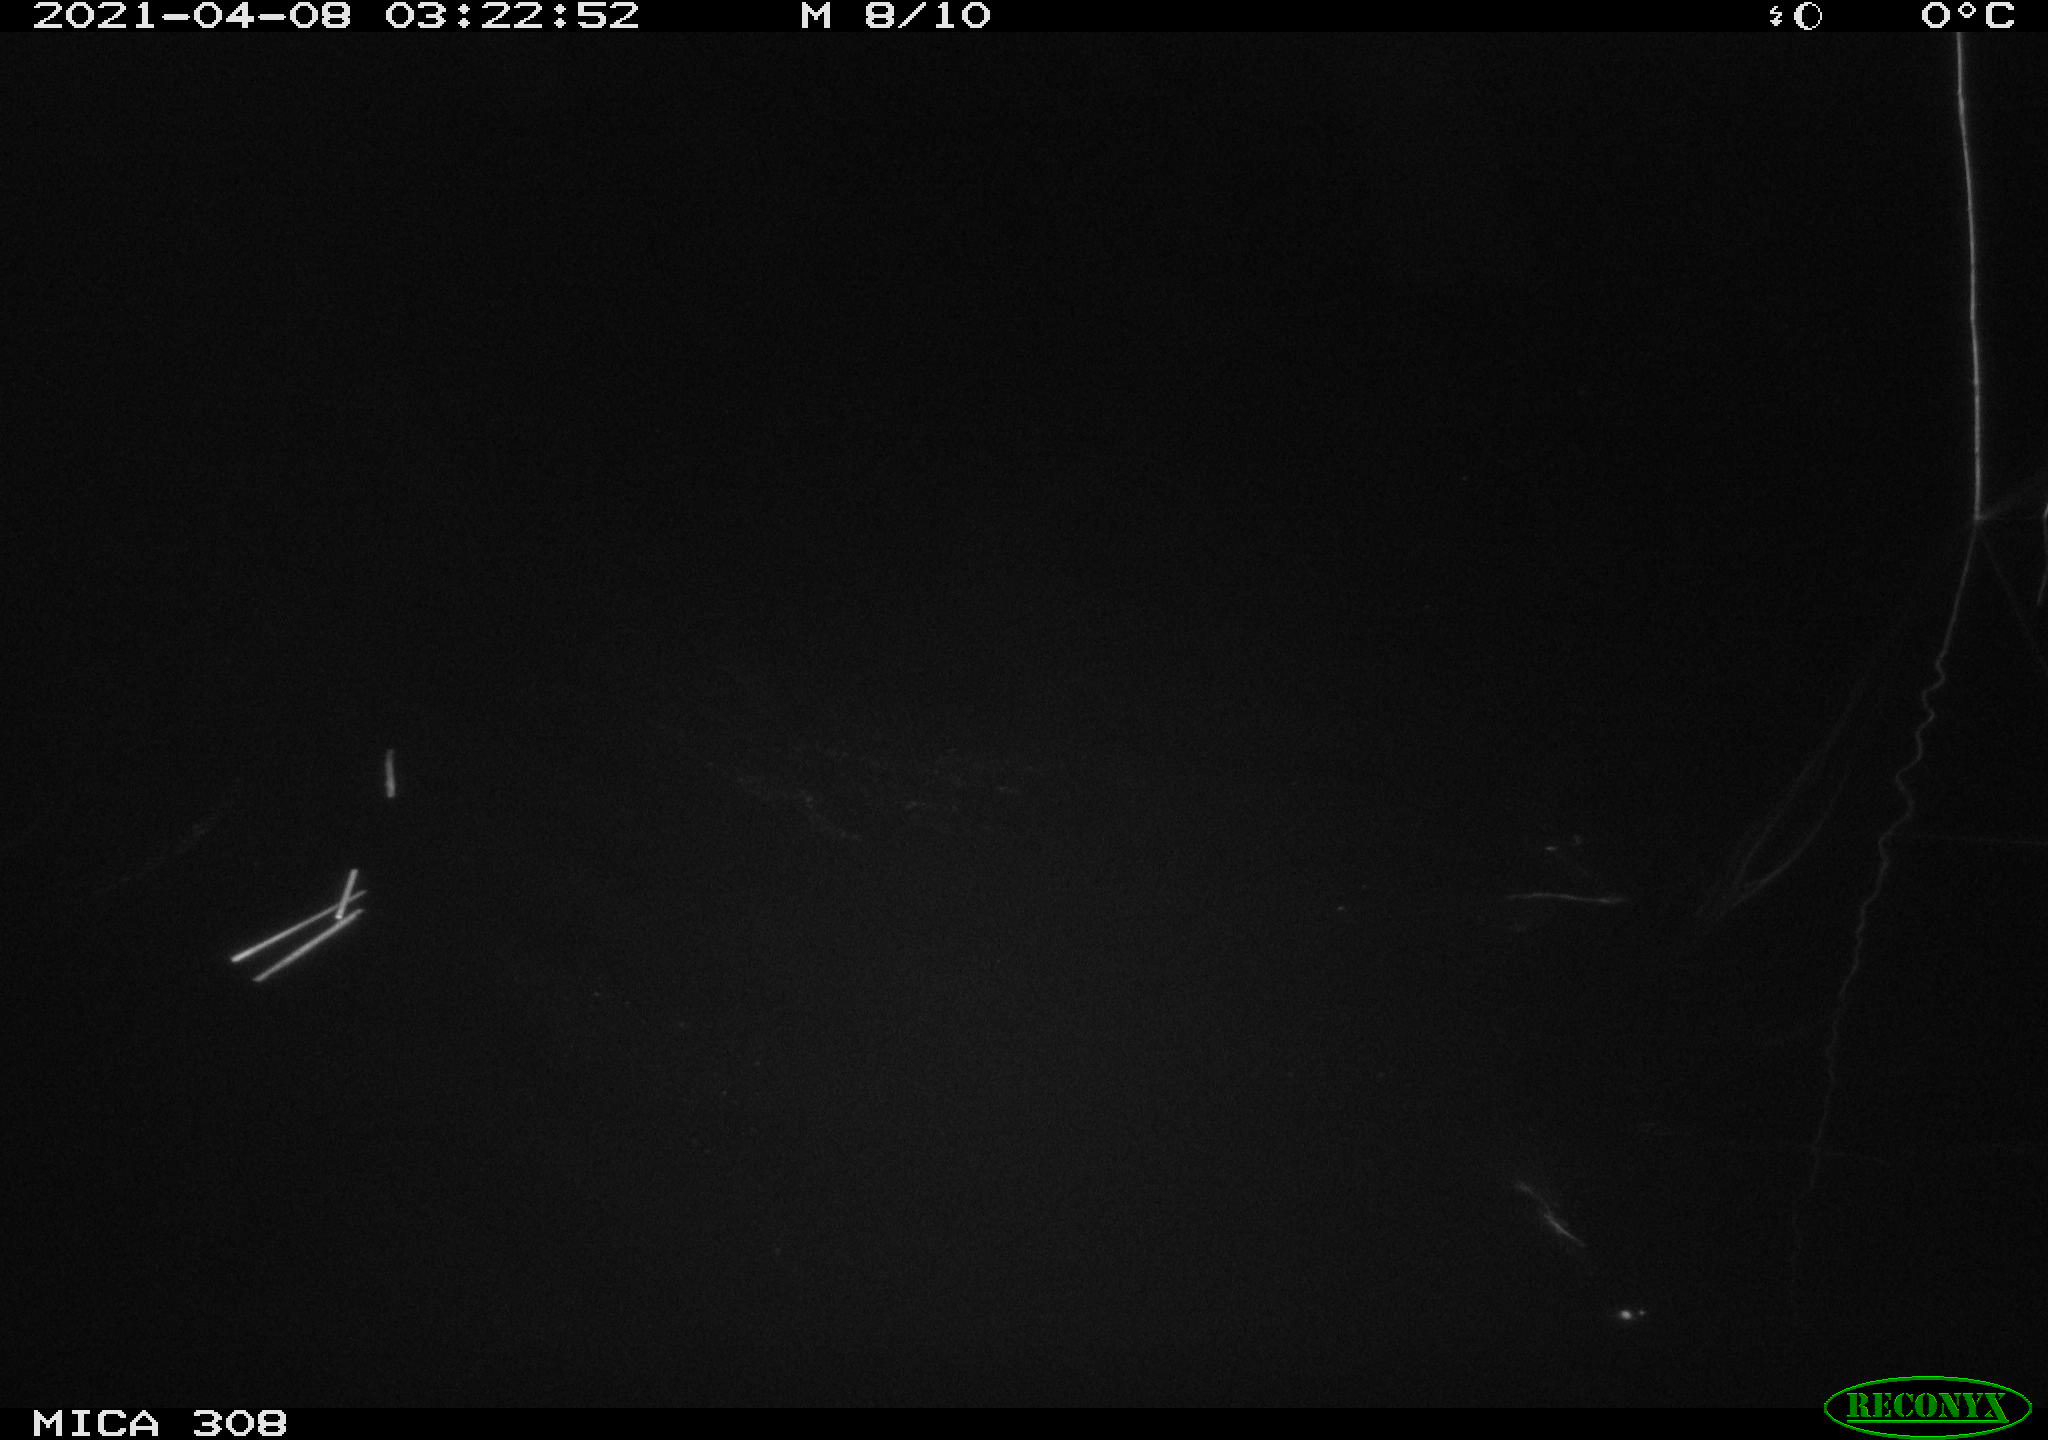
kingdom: Animalia
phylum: Chordata
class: Aves
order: Anseriformes
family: Anatidae
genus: Anas
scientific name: Anas platyrhynchos
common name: Mallard
